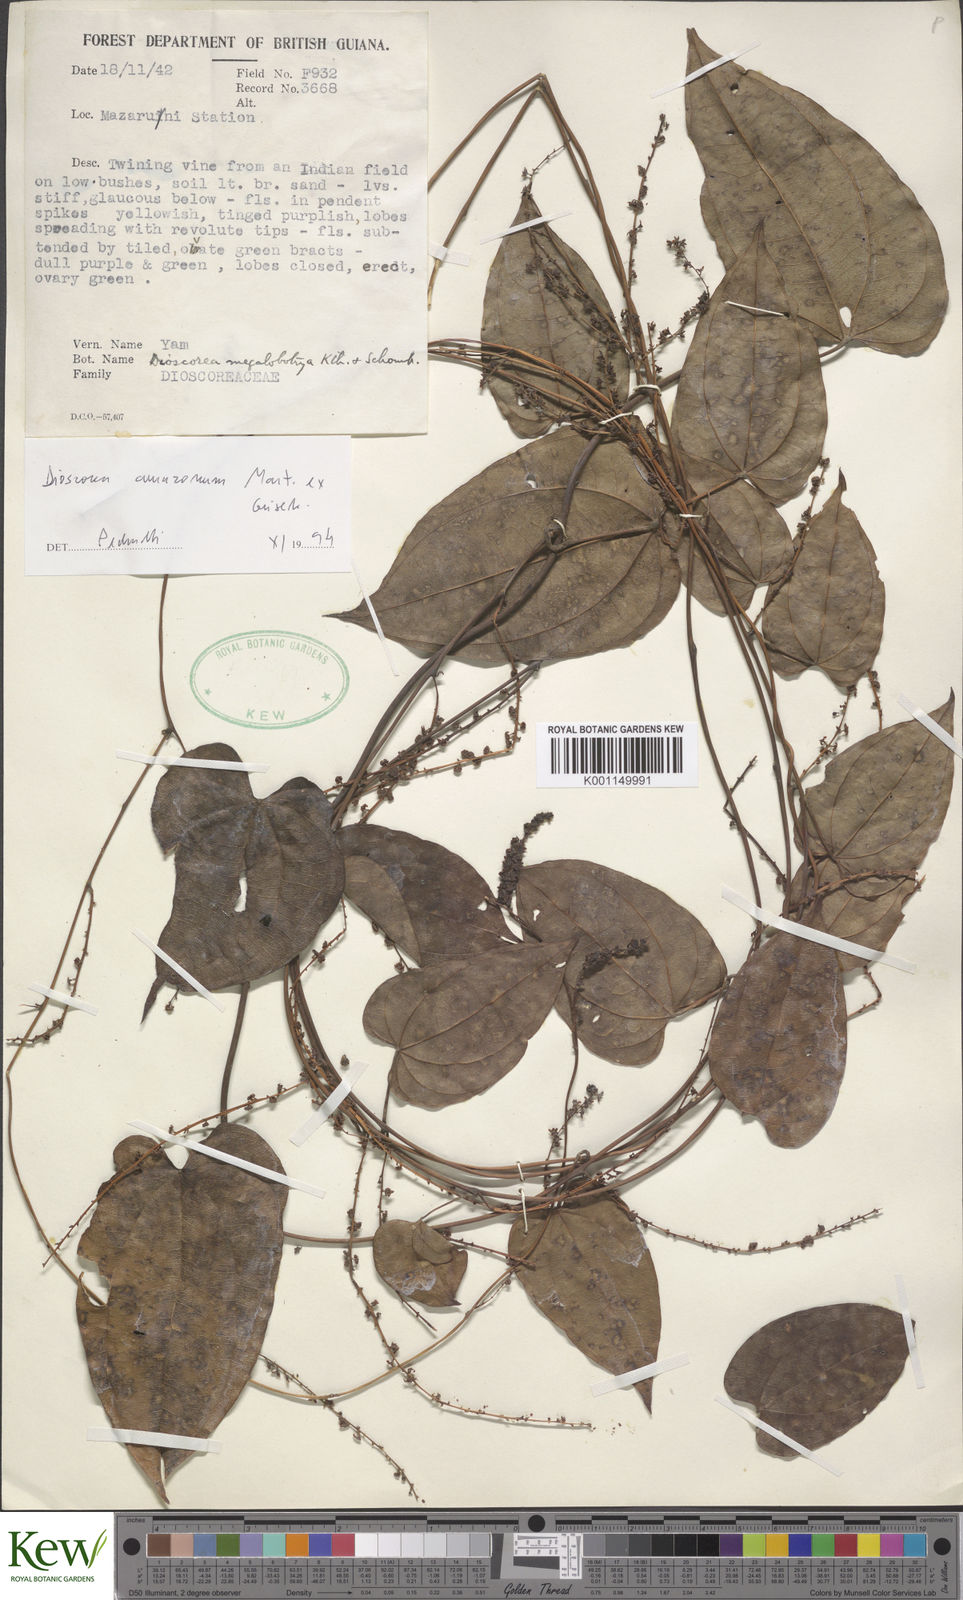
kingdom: Plantae
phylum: Tracheophyta
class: Liliopsida
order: Dioscoreales
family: Dioscoreaceae
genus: Dioscorea
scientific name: Dioscorea amazonum
